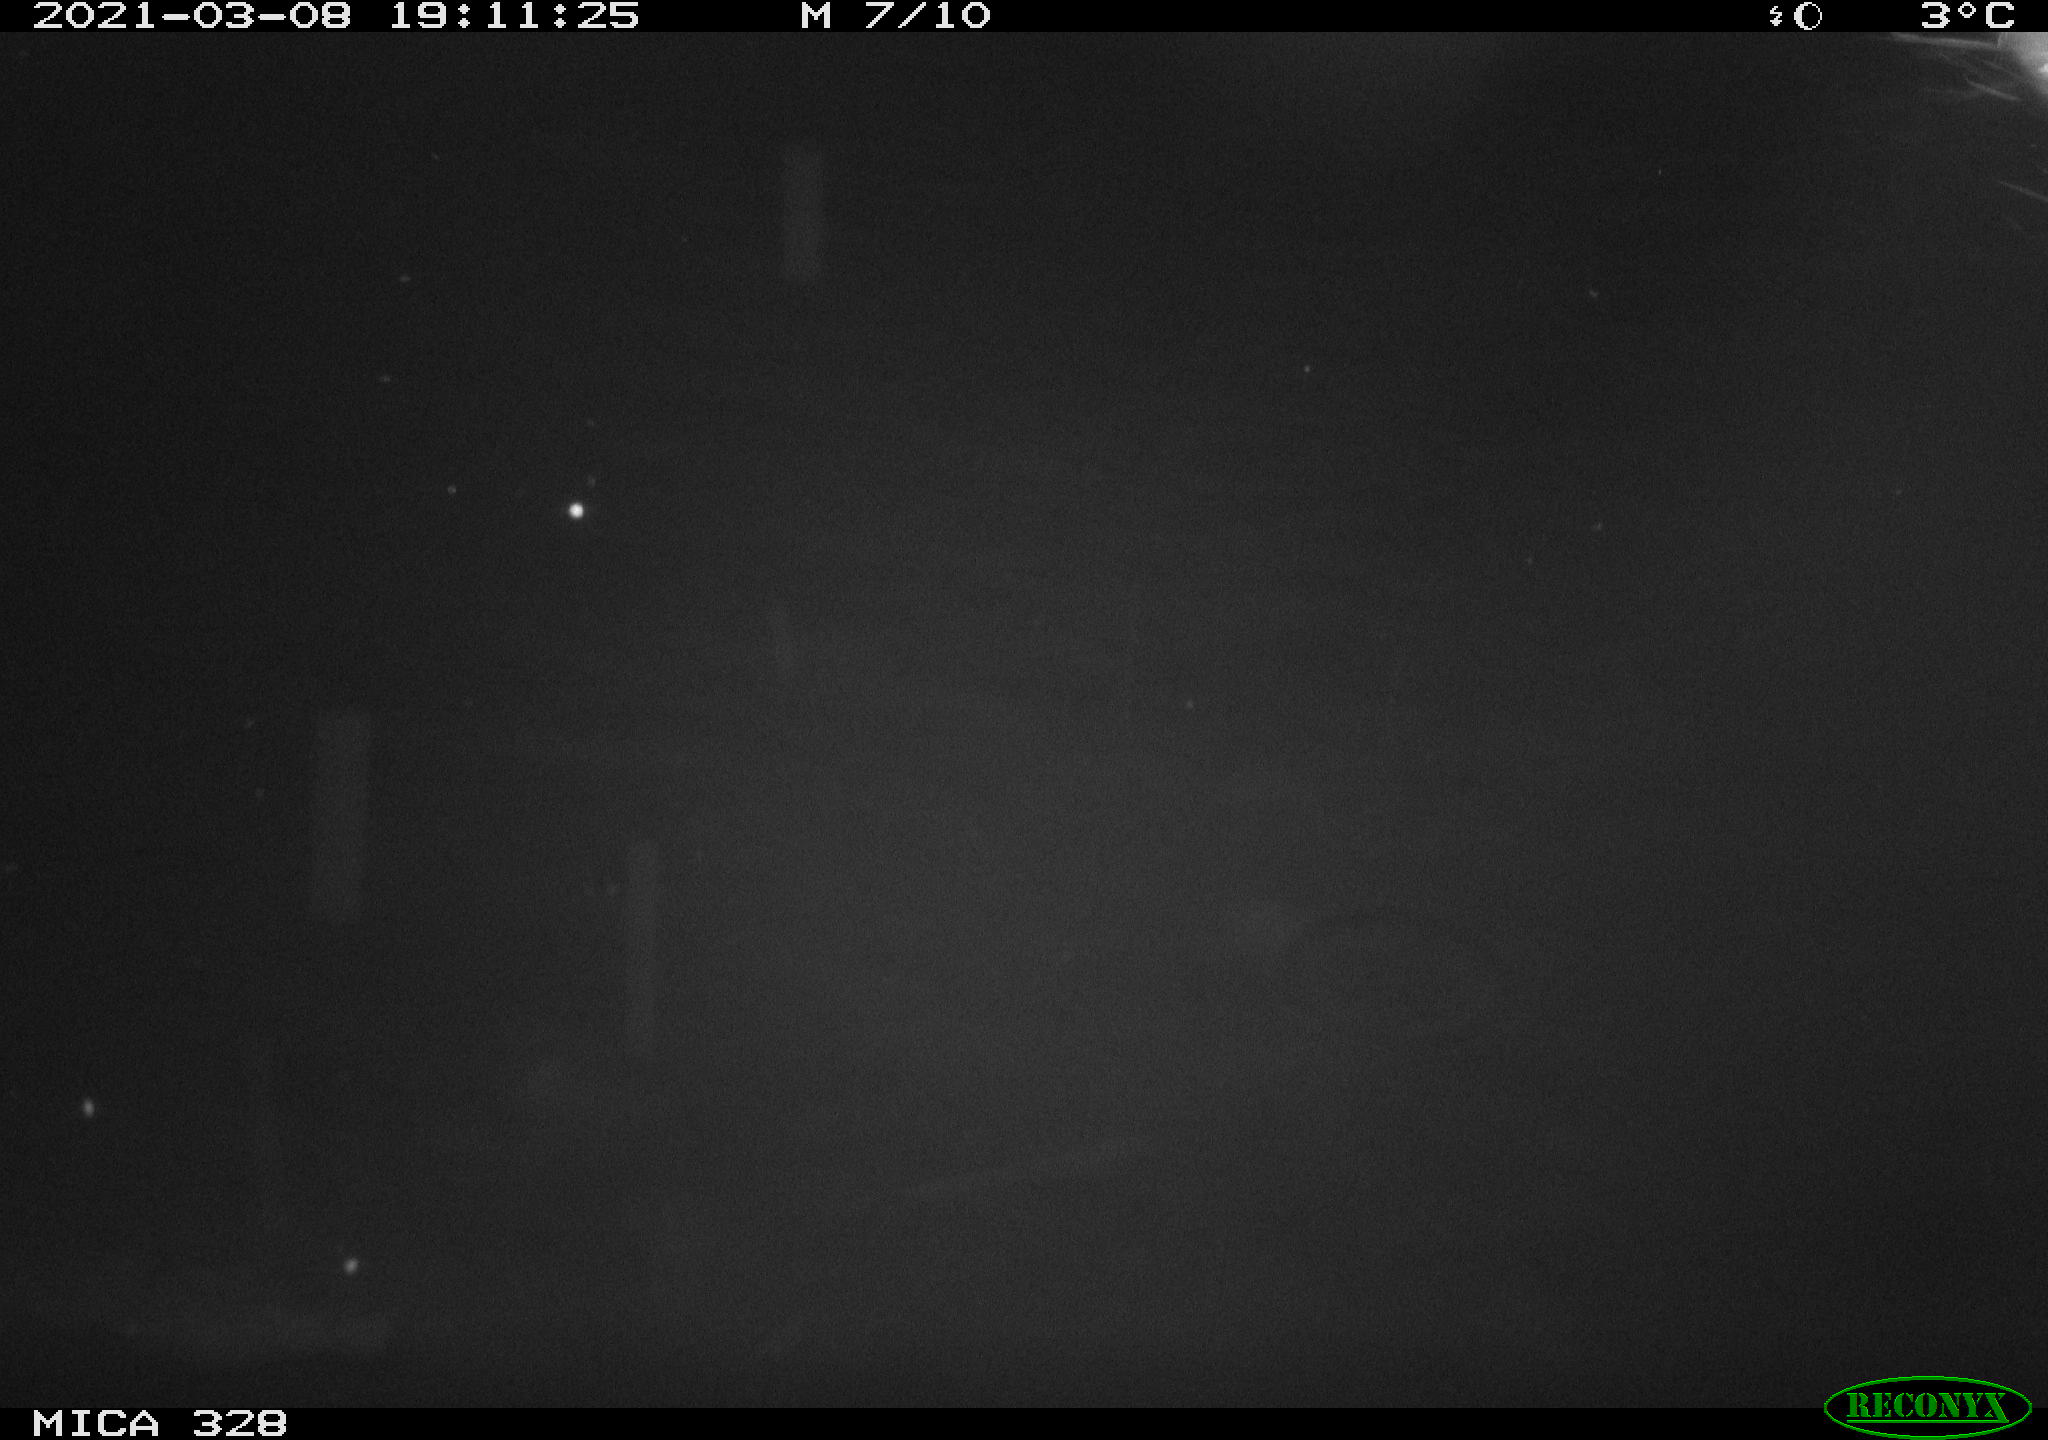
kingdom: Animalia
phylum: Chordata
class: Mammalia
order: Rodentia
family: Cricetidae
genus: Ondatra
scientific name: Ondatra zibethicus
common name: Muskrat
